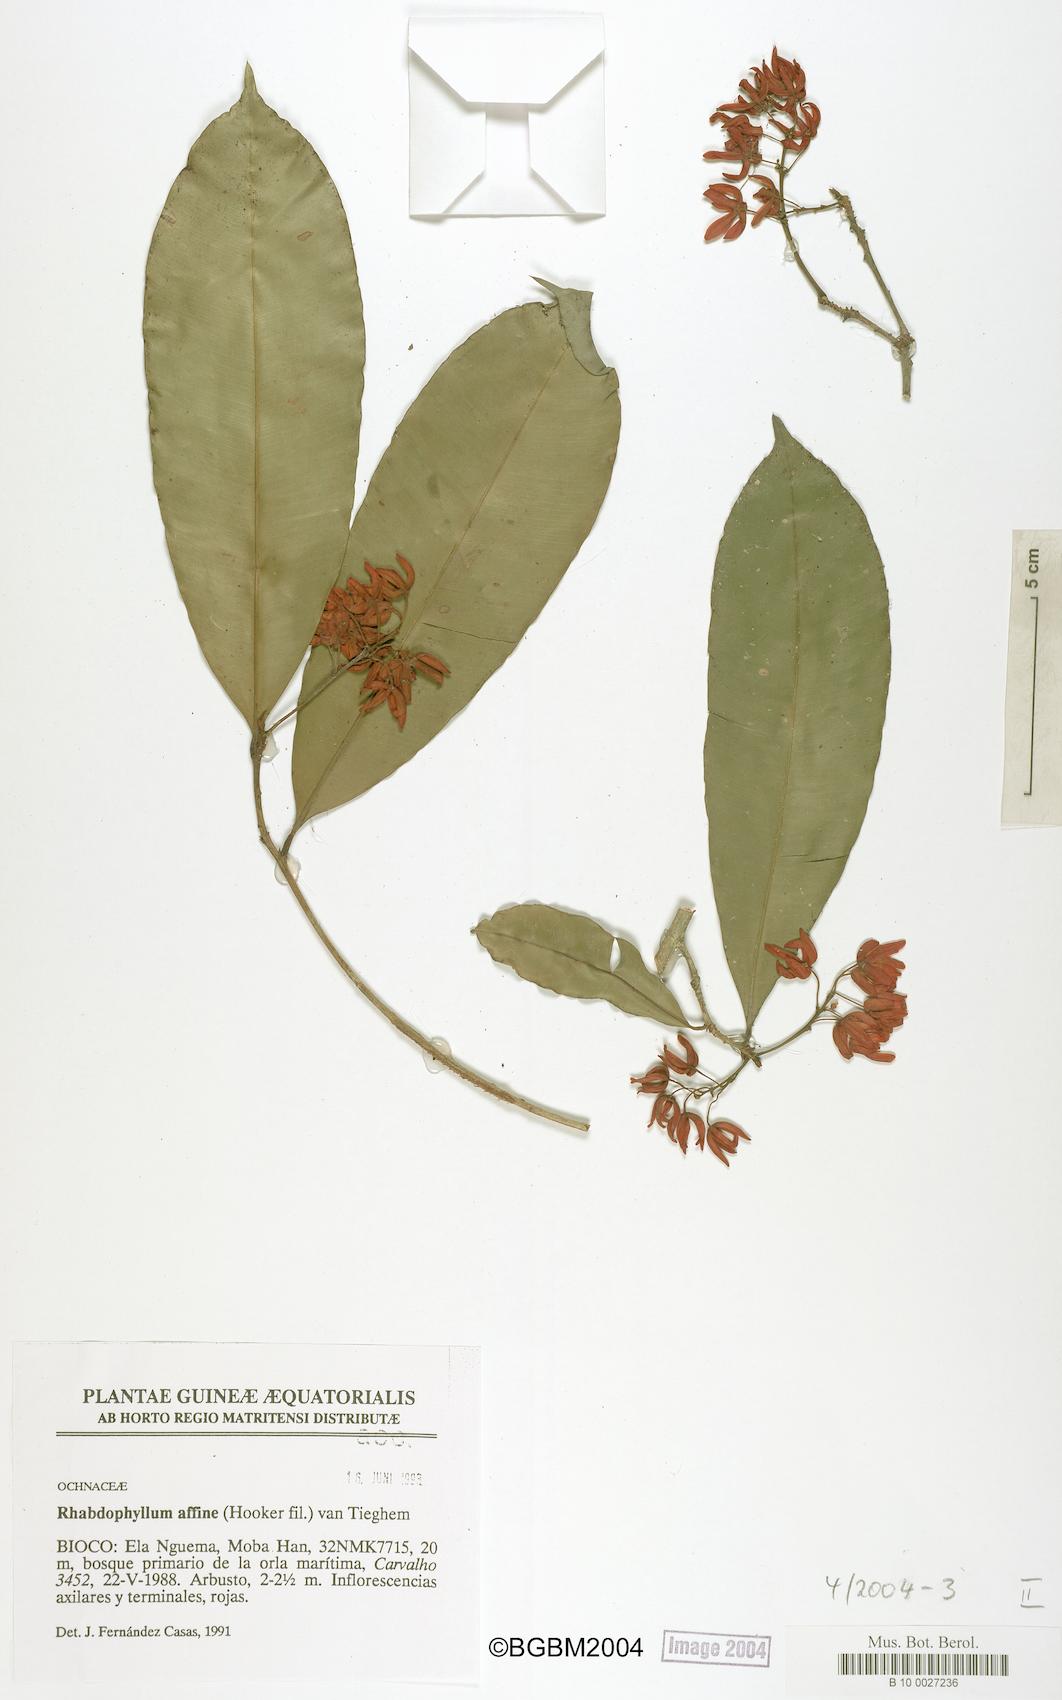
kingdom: Plantae
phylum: Tracheophyta
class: Magnoliopsida
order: Malpighiales
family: Ochnaceae
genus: Rhabdophyllum
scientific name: Rhabdophyllum affine
